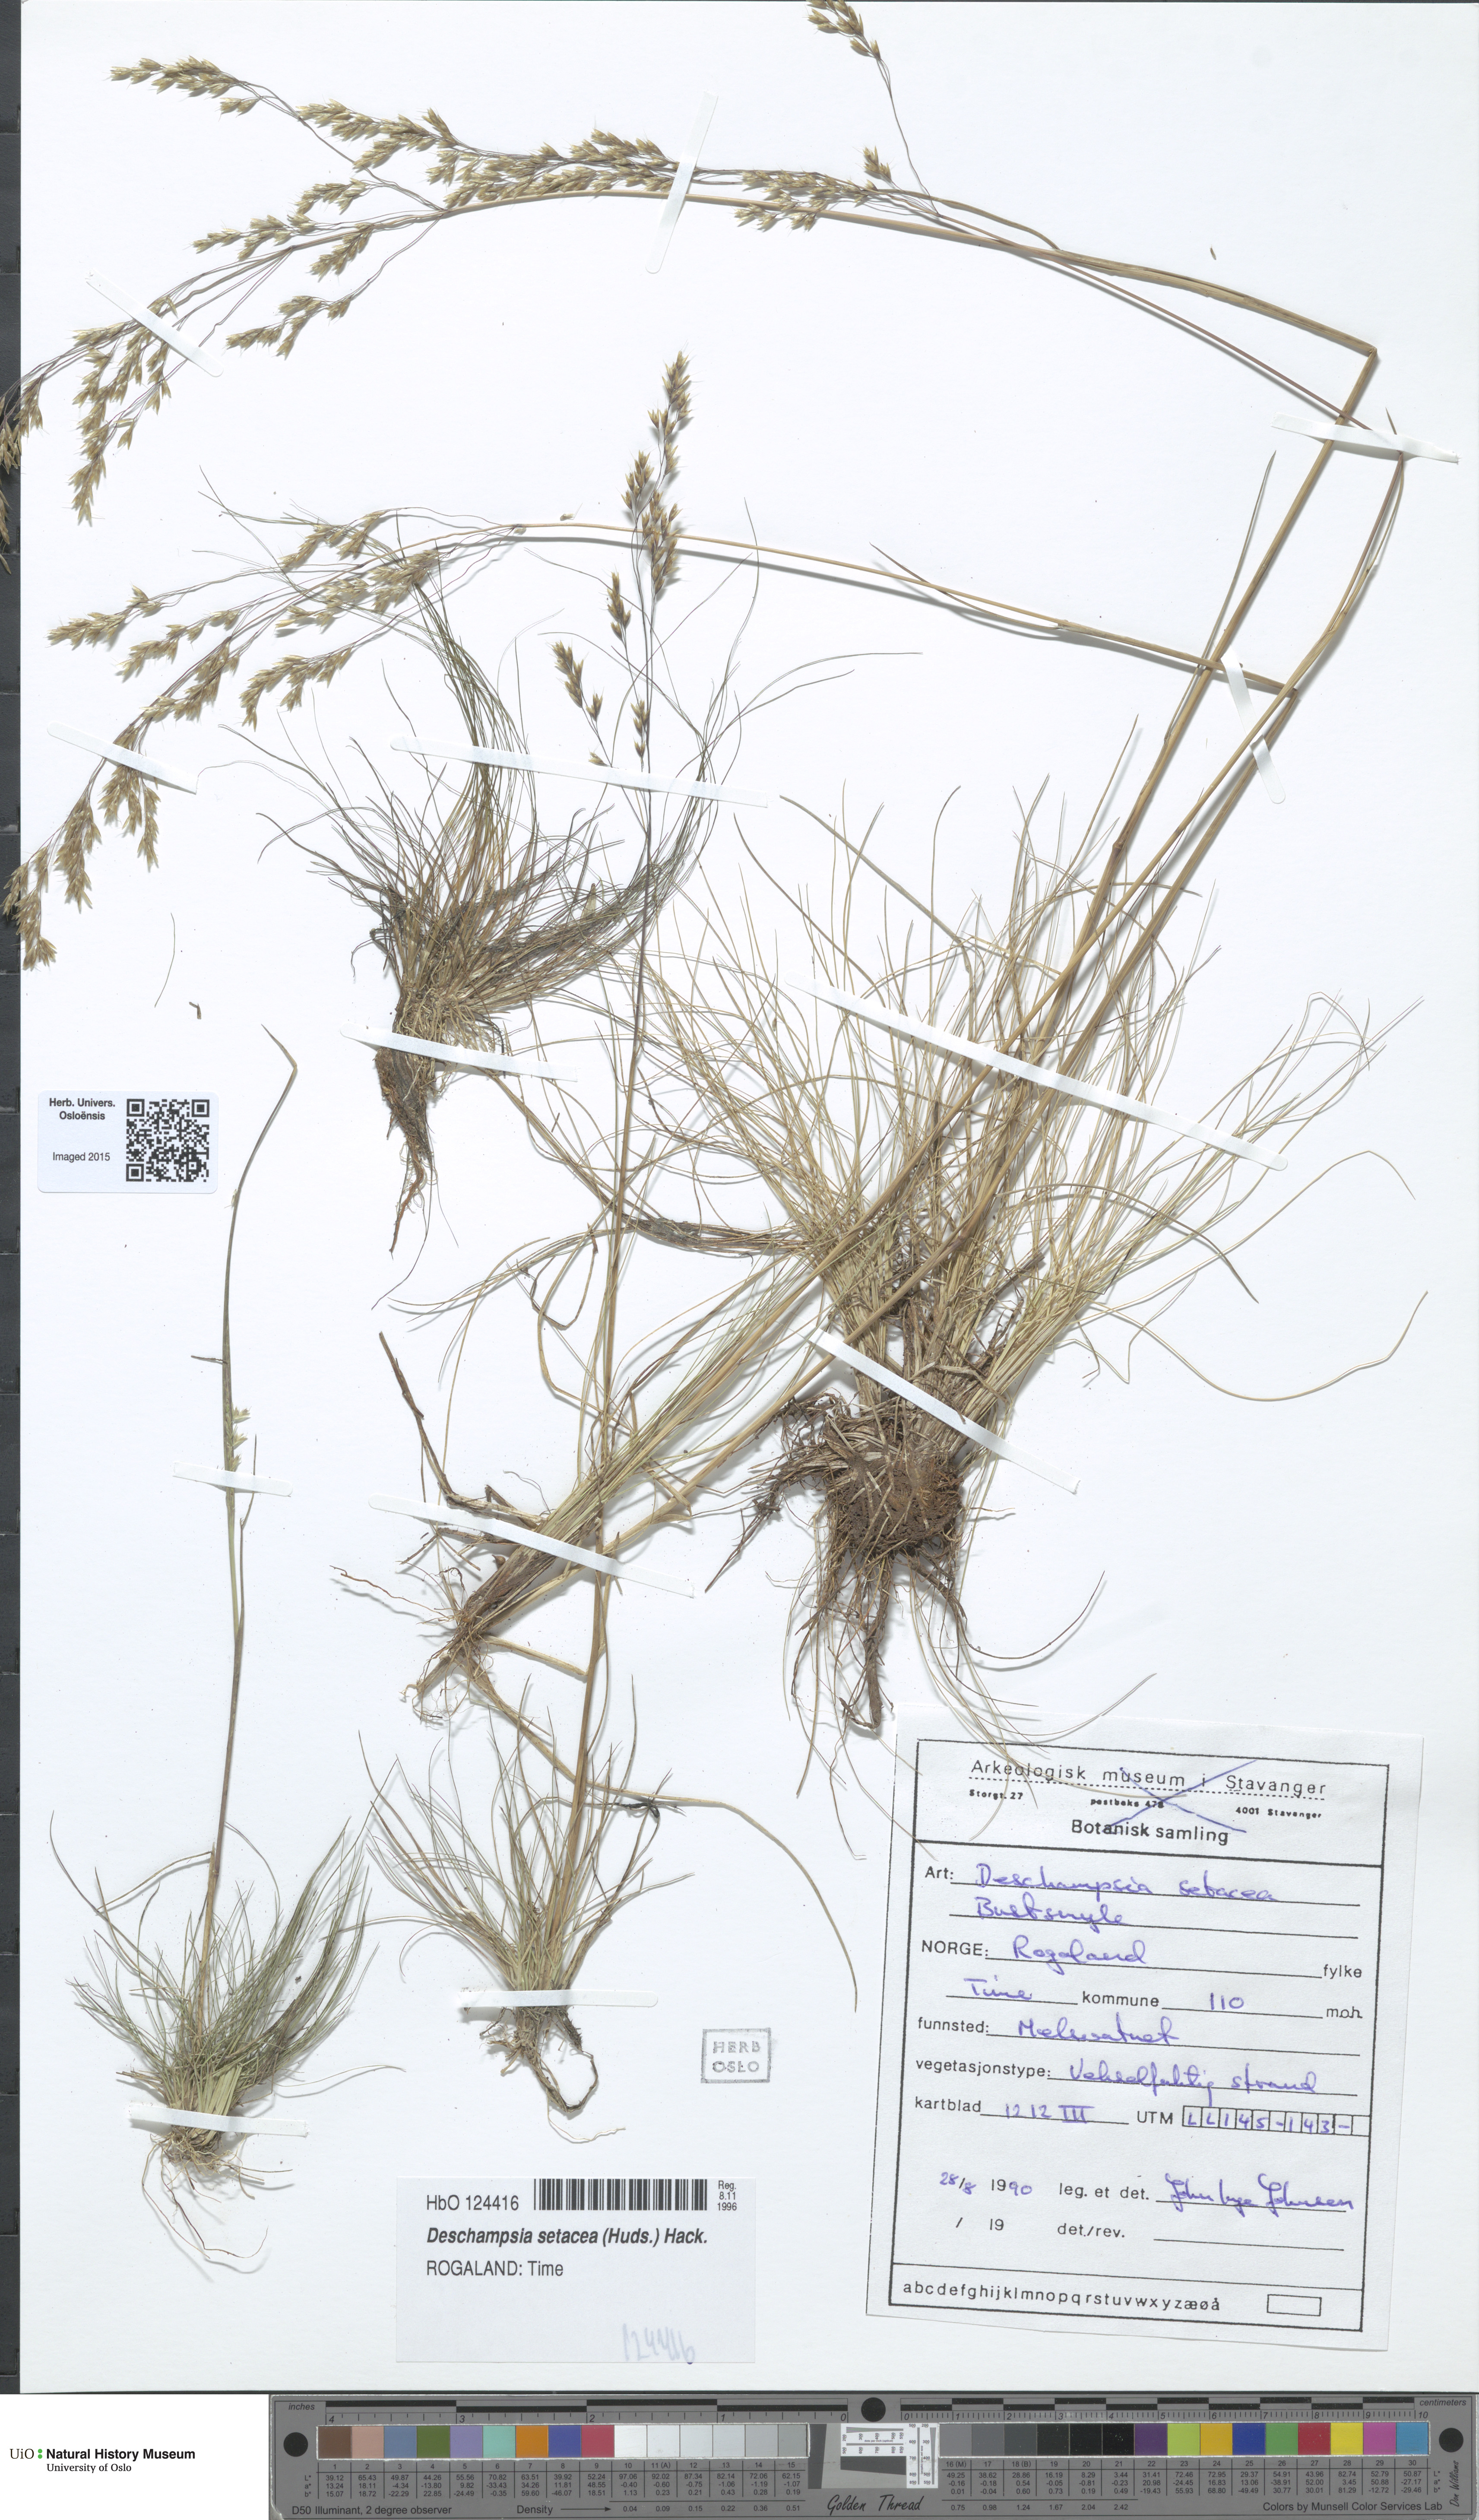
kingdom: Plantae
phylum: Tracheophyta
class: Liliopsida
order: Poales
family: Poaceae
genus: Deschampsia
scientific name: Deschampsia setacea
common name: Bog hair-grass
